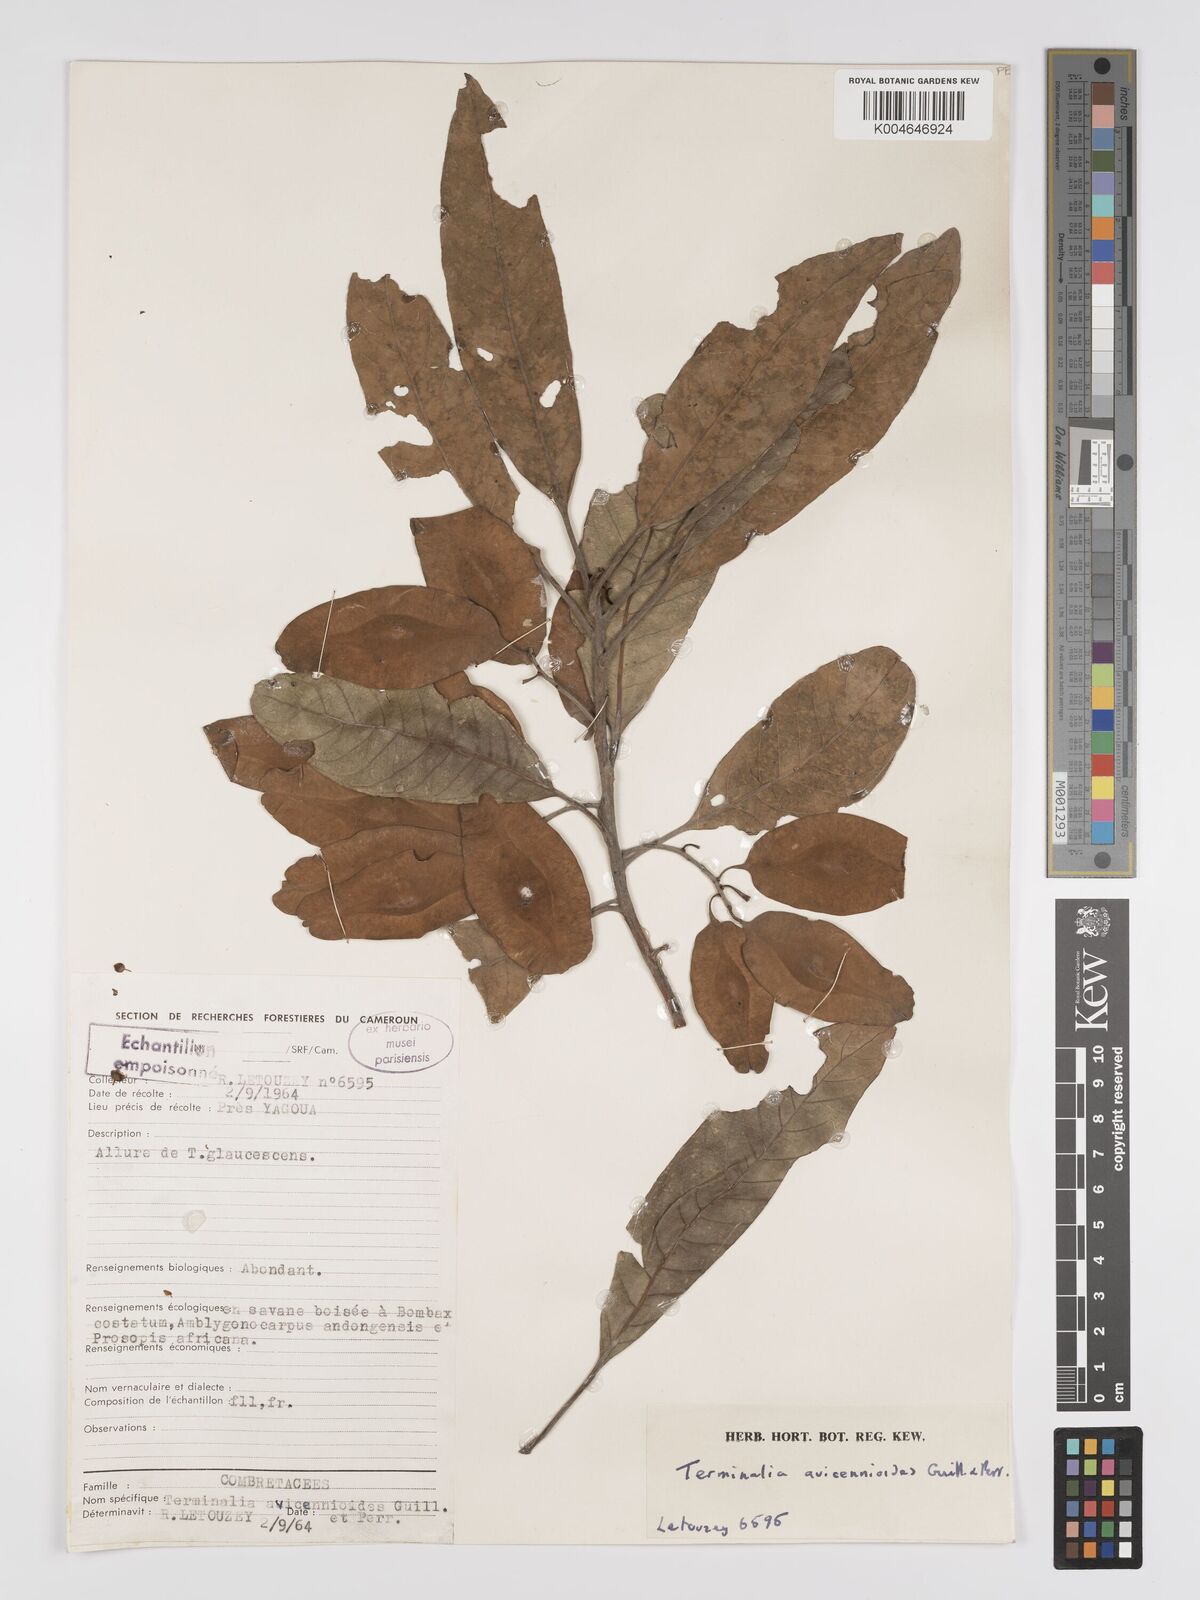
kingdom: Plantae
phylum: Tracheophyta
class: Magnoliopsida
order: Myrtales
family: Combretaceae
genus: Terminalia
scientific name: Terminalia avicennioides
